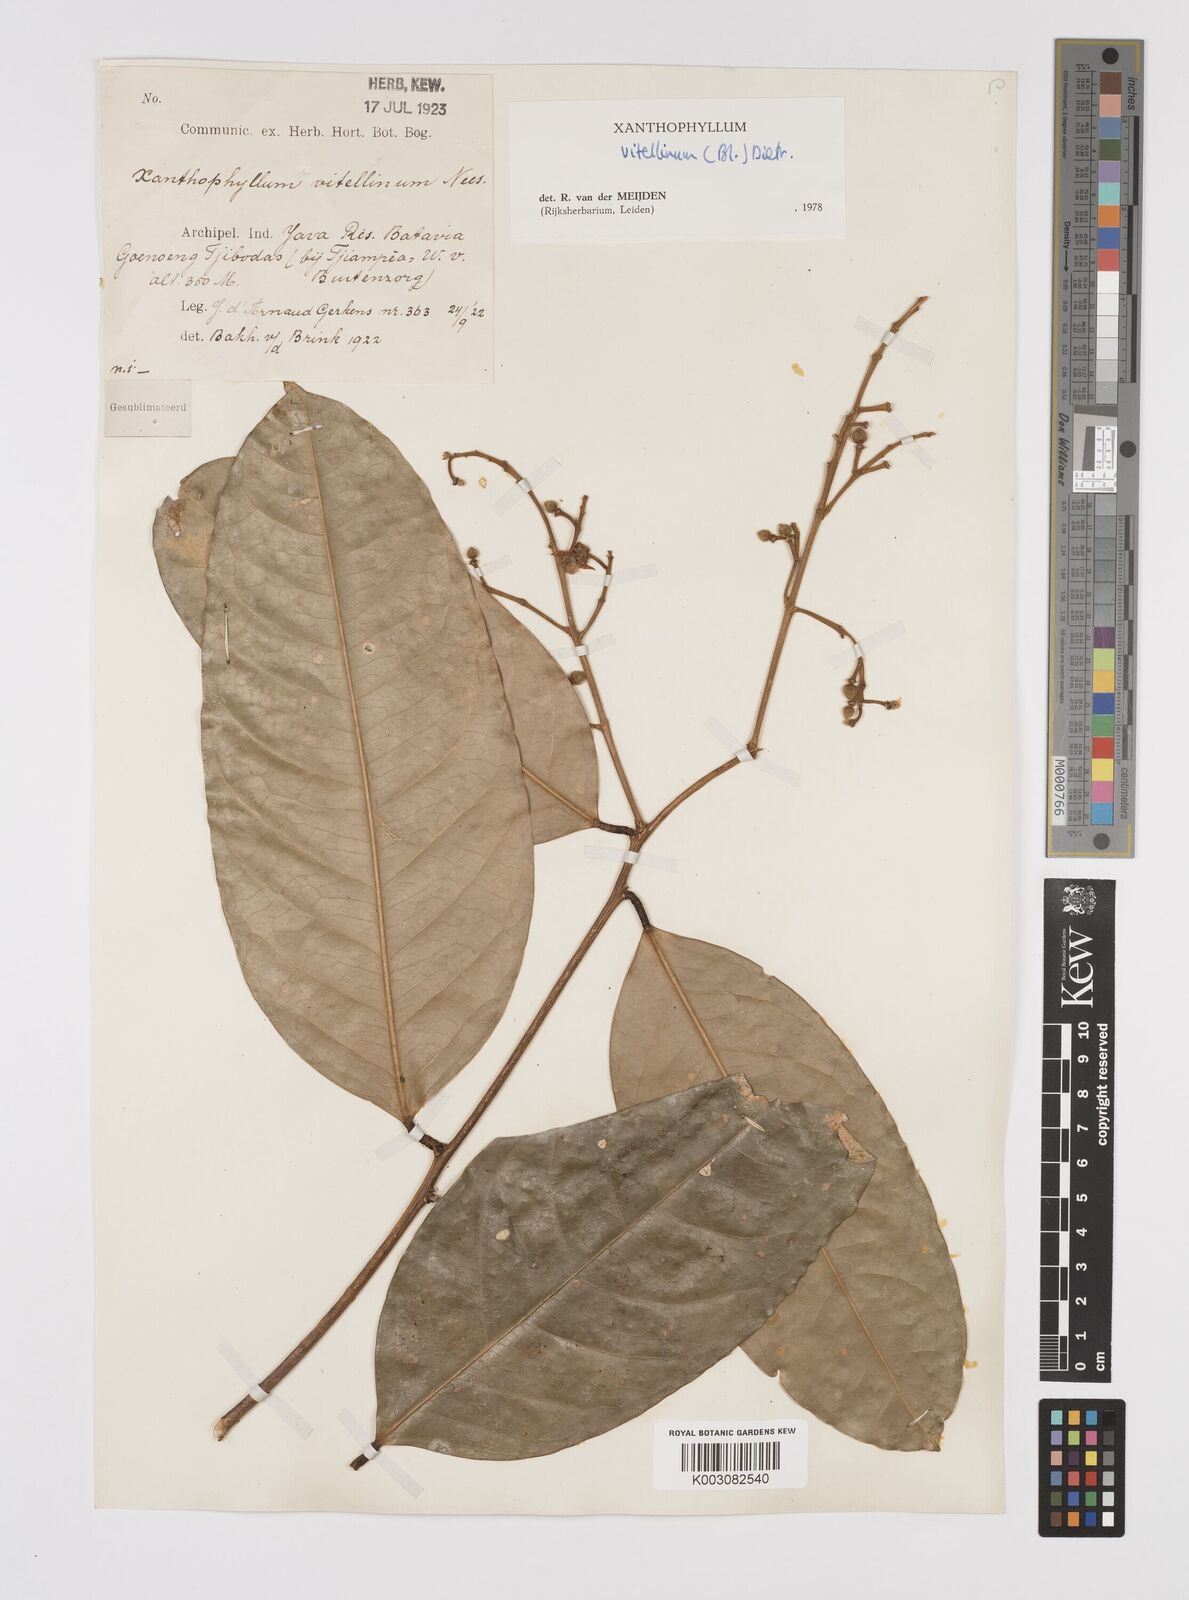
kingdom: Plantae
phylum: Tracheophyta
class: Magnoliopsida
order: Fabales
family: Polygalaceae
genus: Xanthophyllum
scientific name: Xanthophyllum vitellinum
